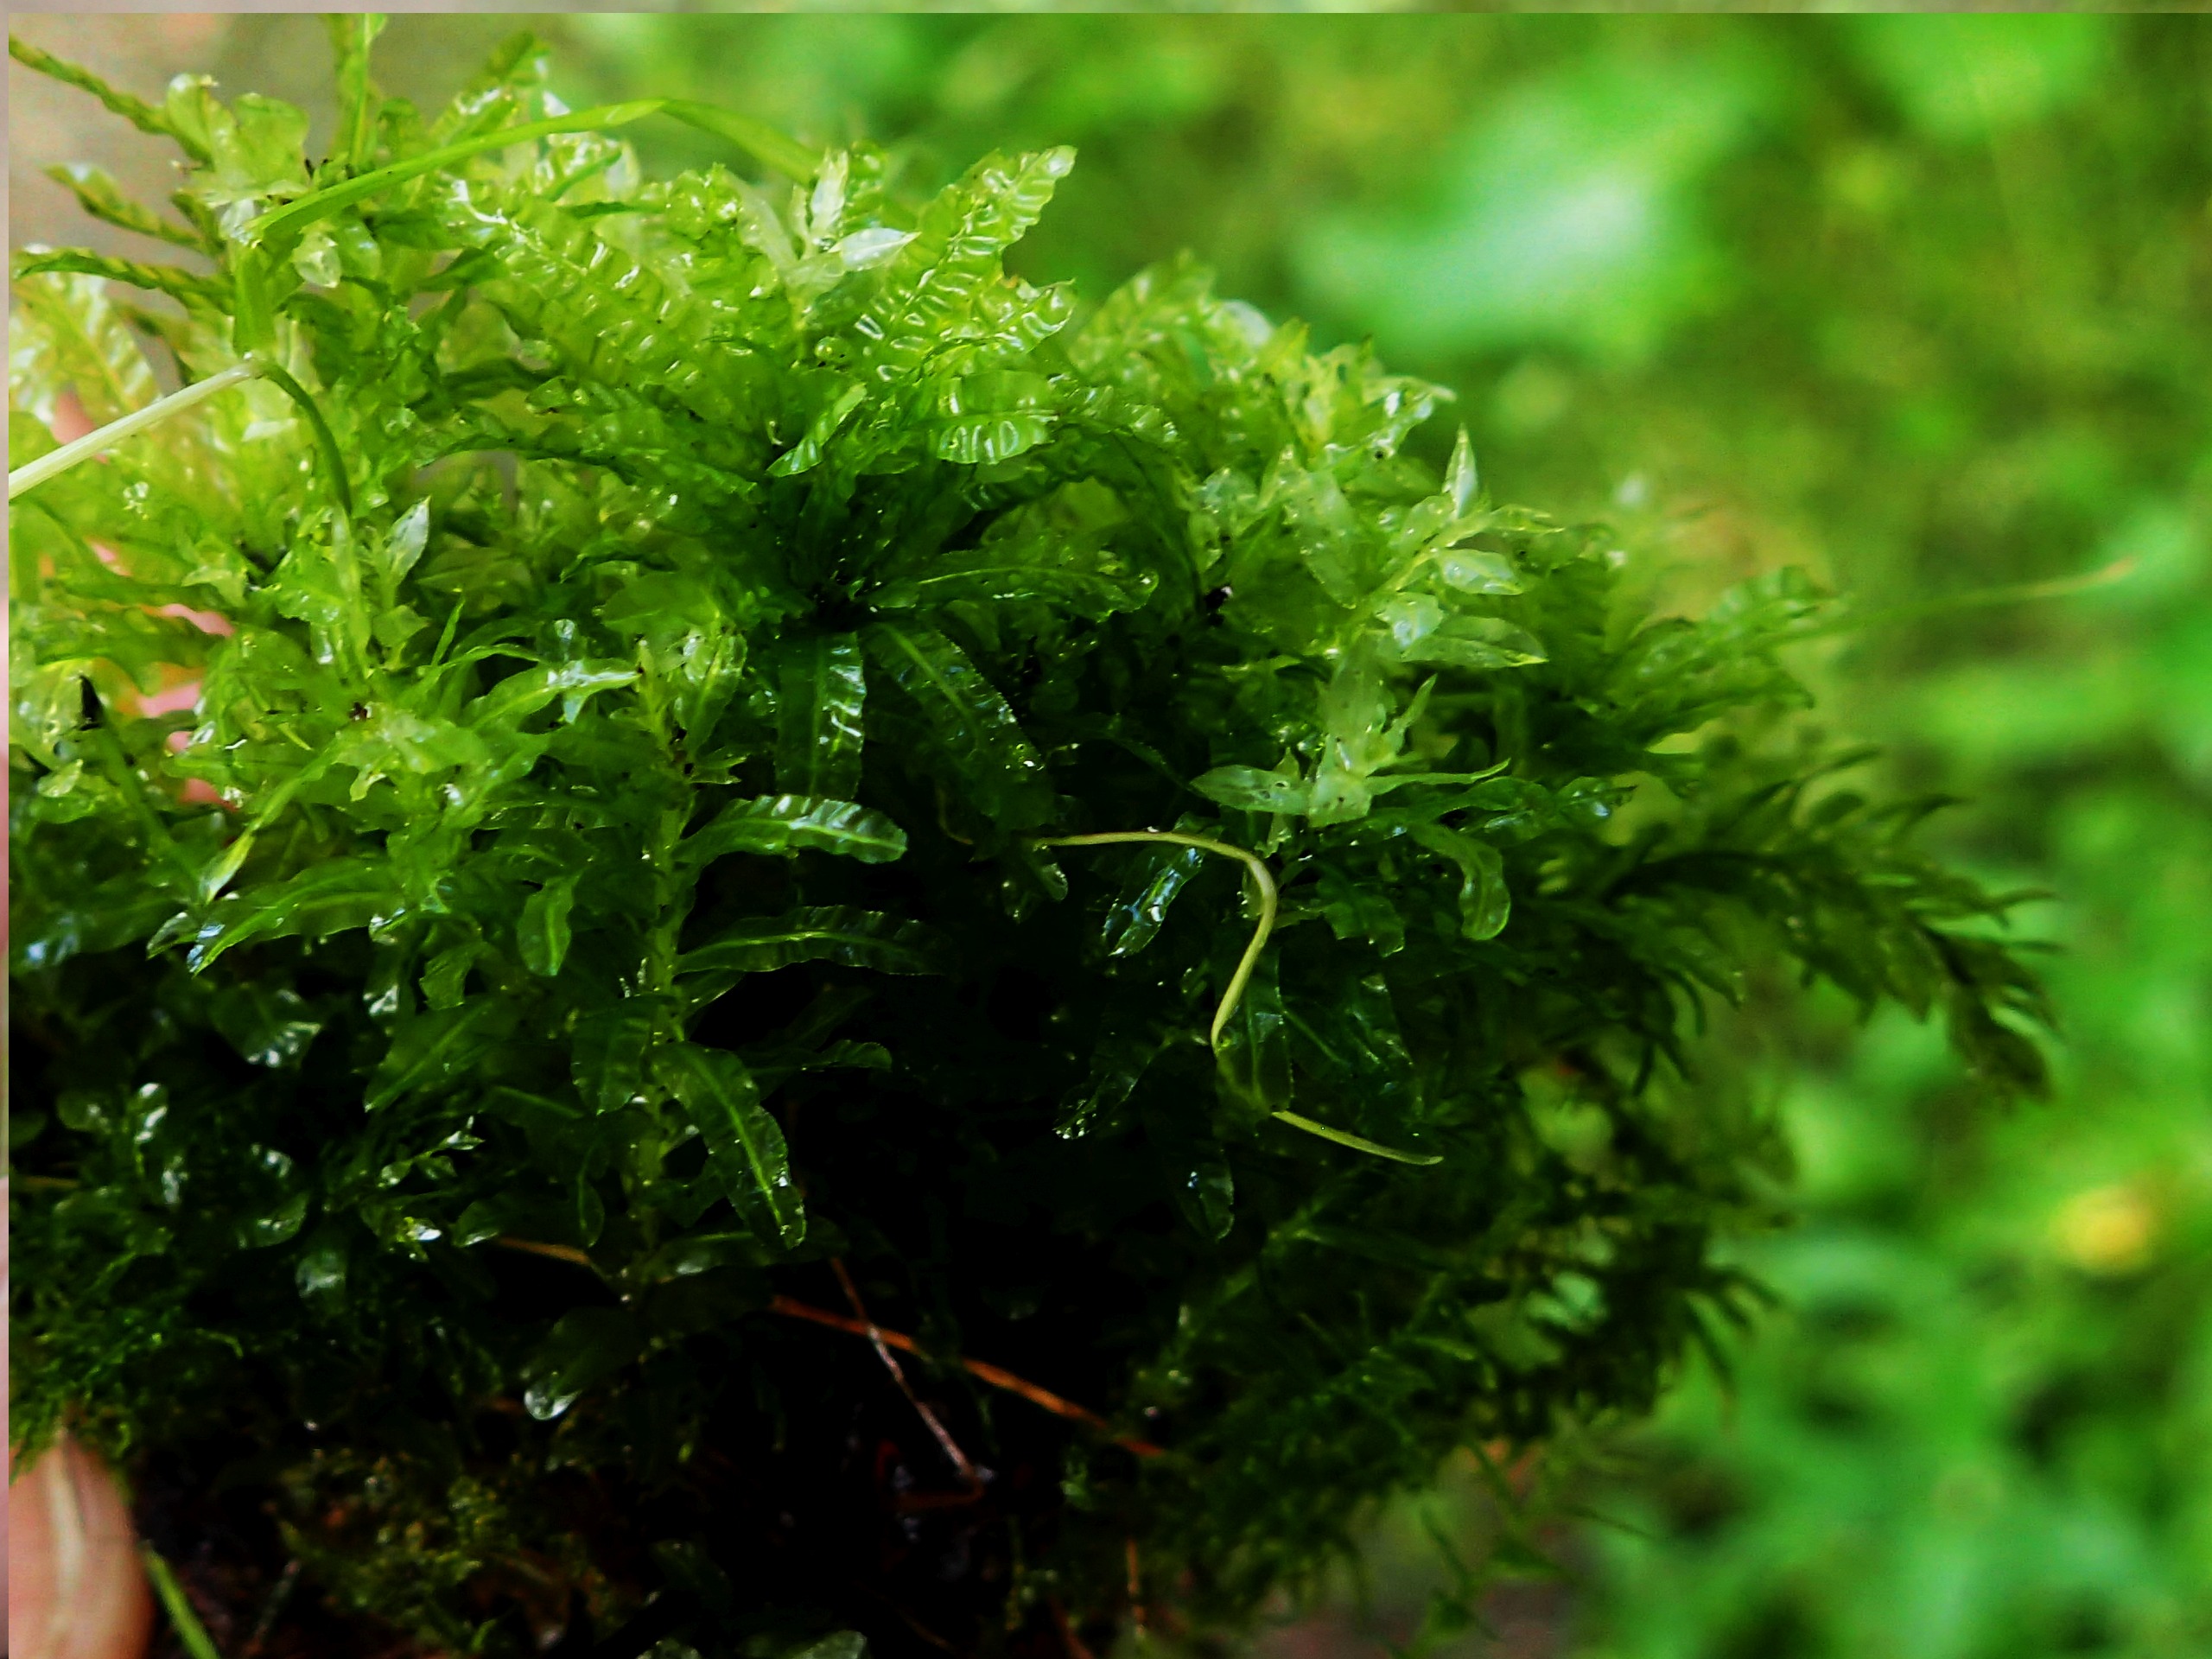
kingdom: Plantae
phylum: Bryophyta
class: Bryopsida
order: Bryales
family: Mniaceae
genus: Plagiomnium
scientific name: Plagiomnium undulatum
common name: Bølget krybstjerne
